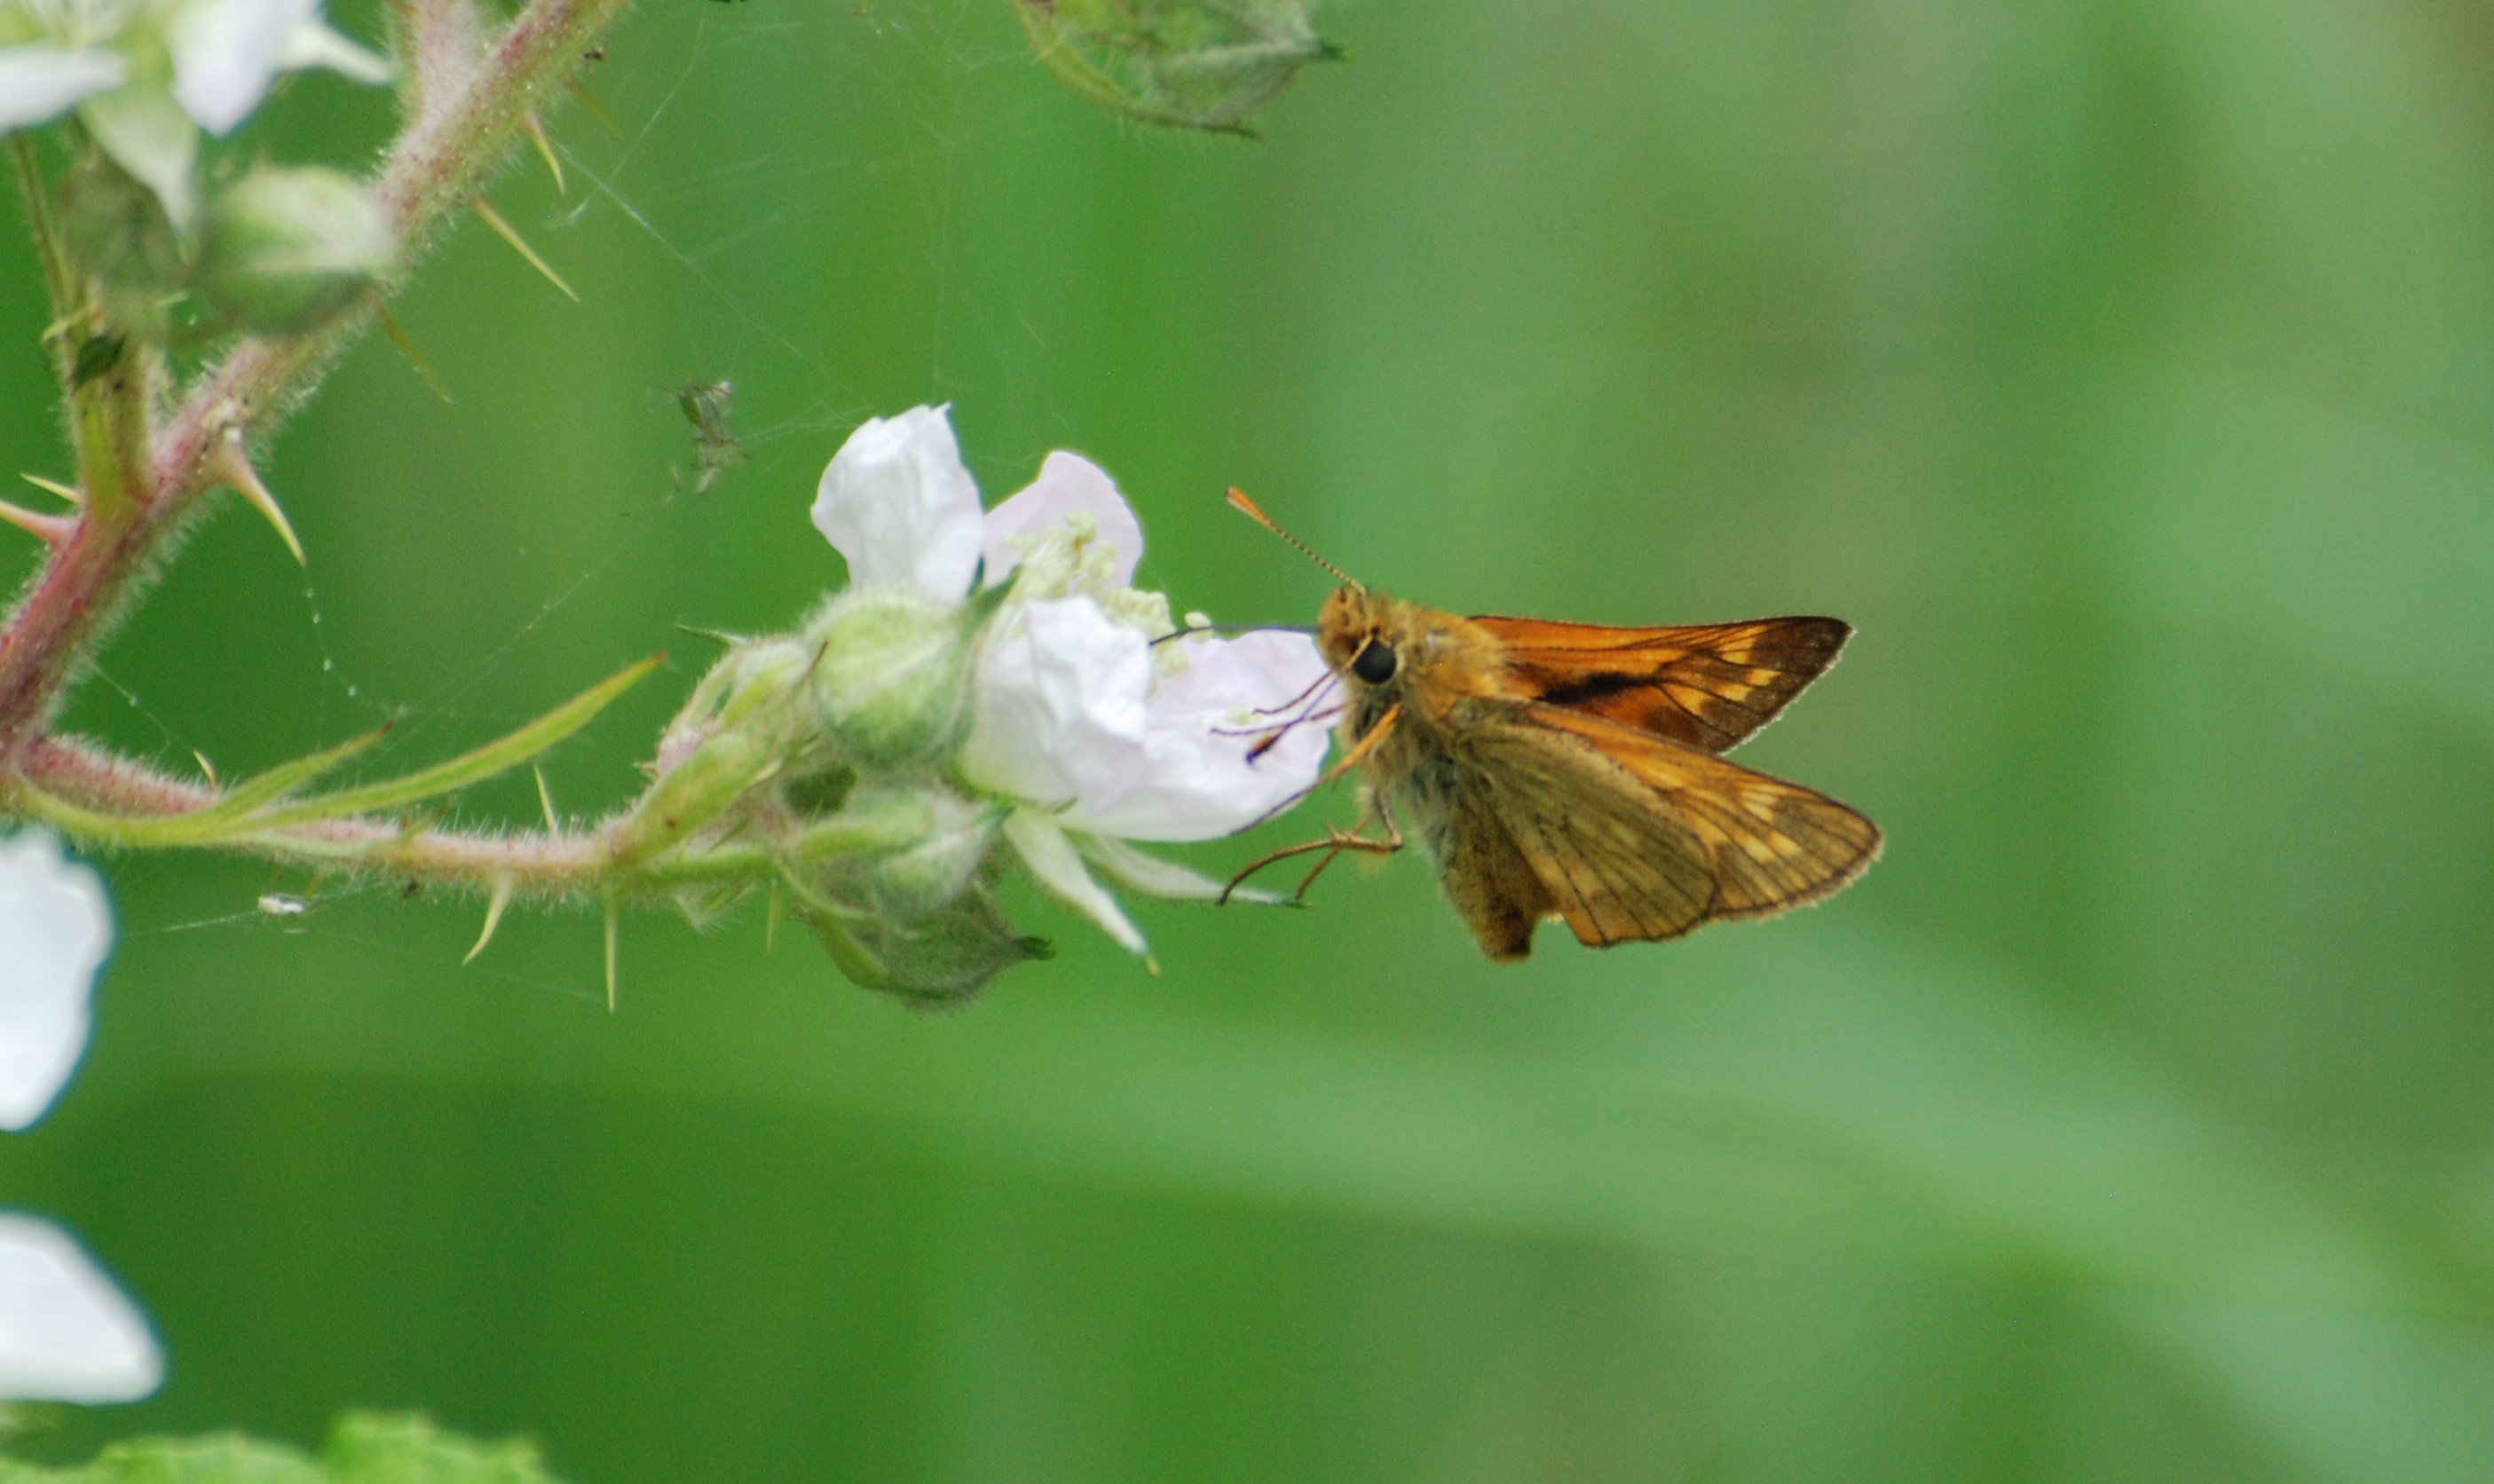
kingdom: Animalia
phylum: Arthropoda
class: Insecta
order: Lepidoptera
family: Hesperiidae
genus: Ochlodes
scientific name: Ochlodes venata
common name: Stor bredpande
